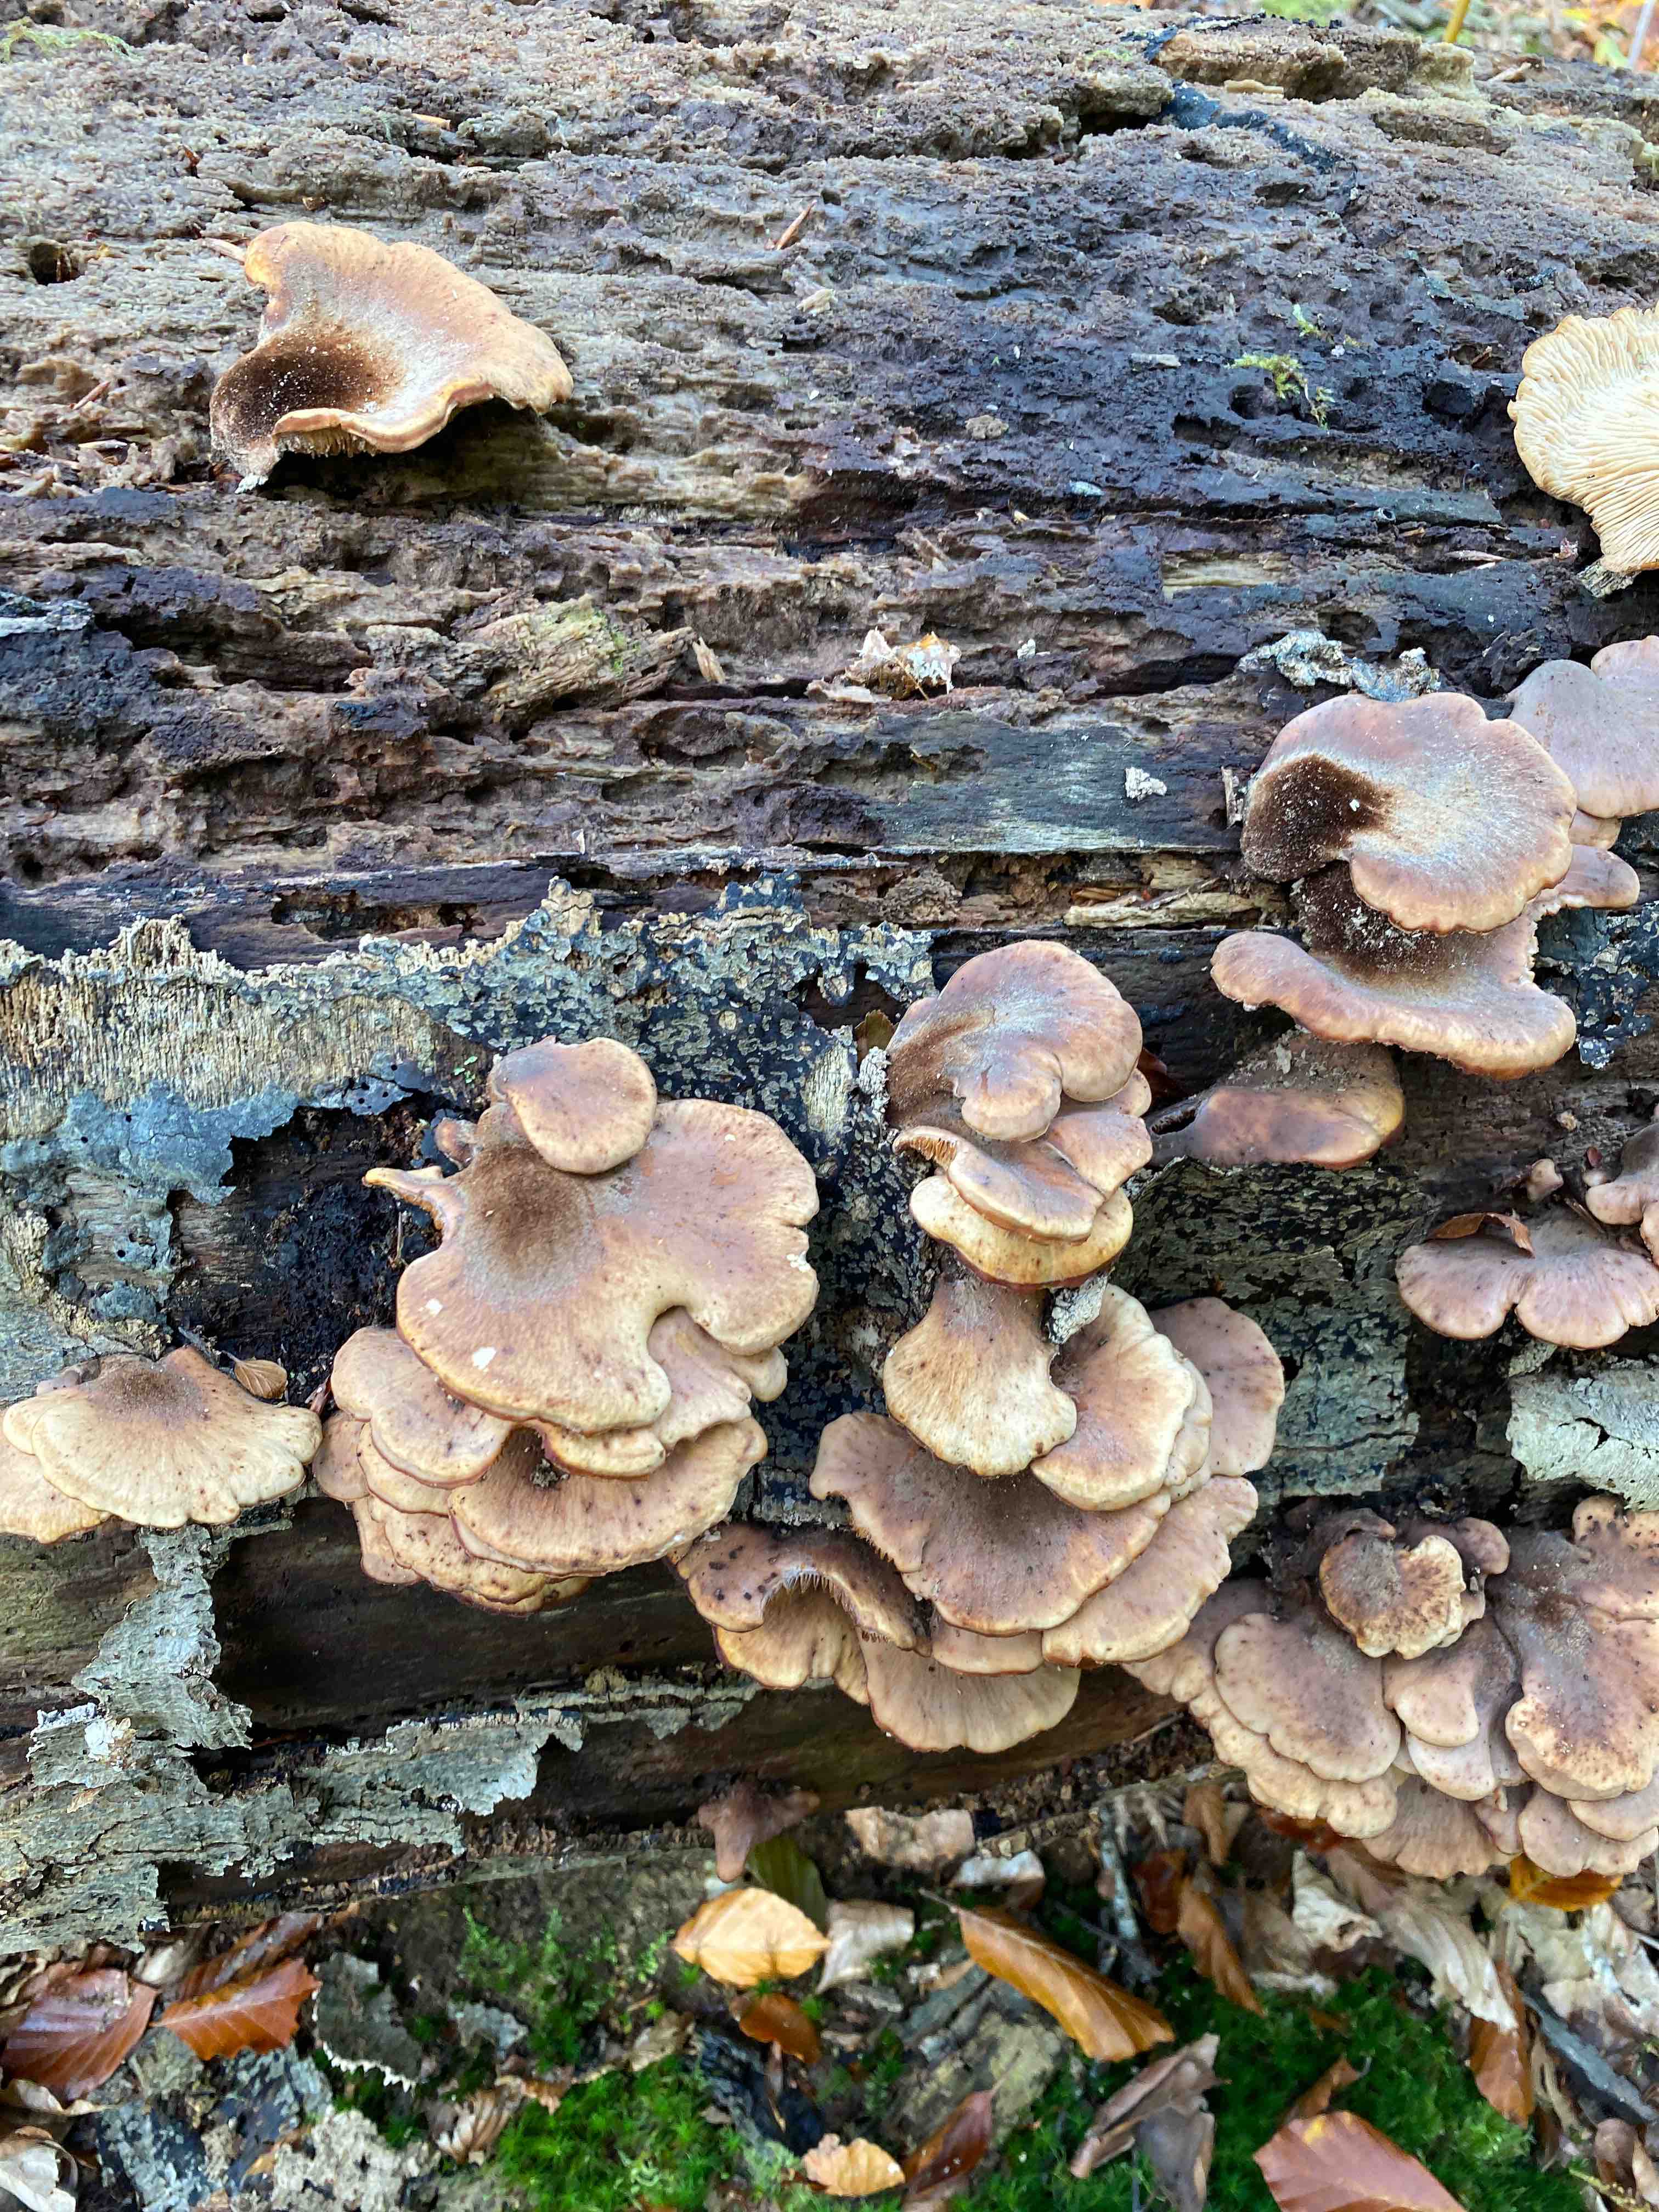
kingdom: Fungi
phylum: Basidiomycota
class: Agaricomycetes
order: Russulales
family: Auriscalpiaceae
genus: Lentinellus
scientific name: Lentinellus ursinus
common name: børstehåret savbladhat
